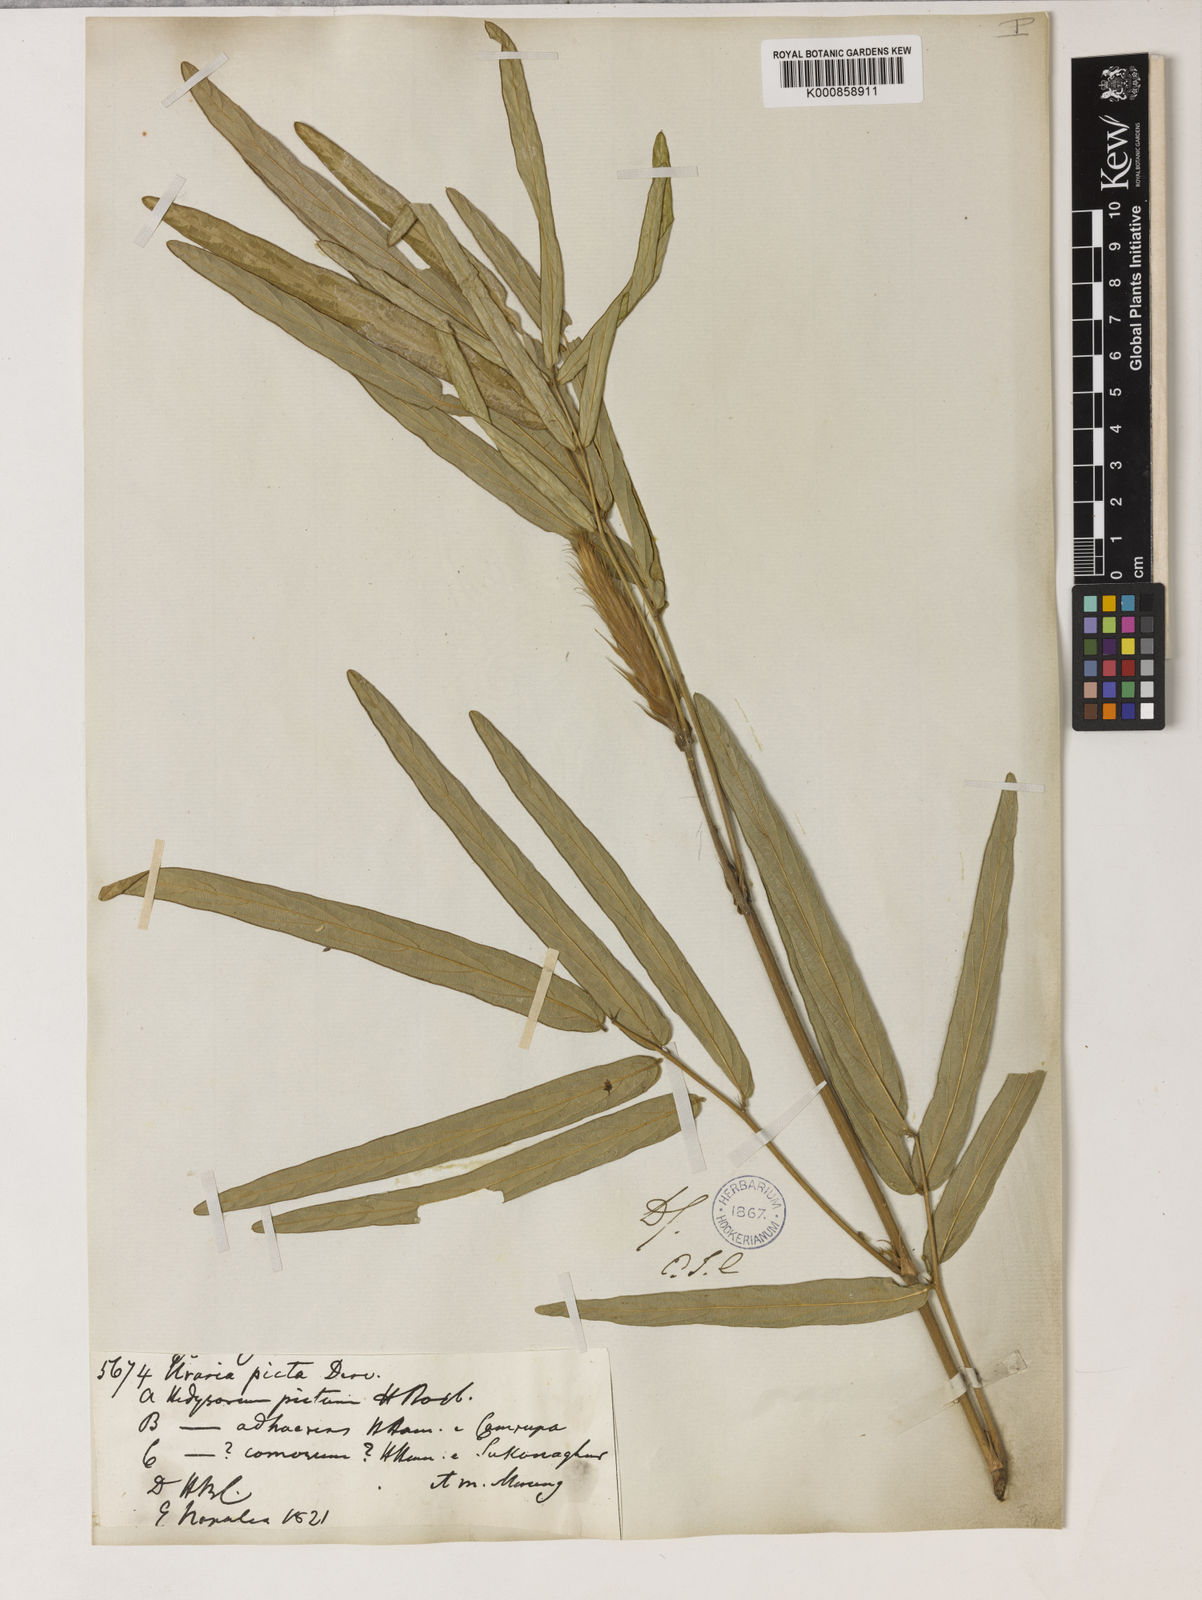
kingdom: Plantae
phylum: Tracheophyta
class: Magnoliopsida
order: Fabales
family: Fabaceae
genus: Uraria
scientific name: Uraria picta
